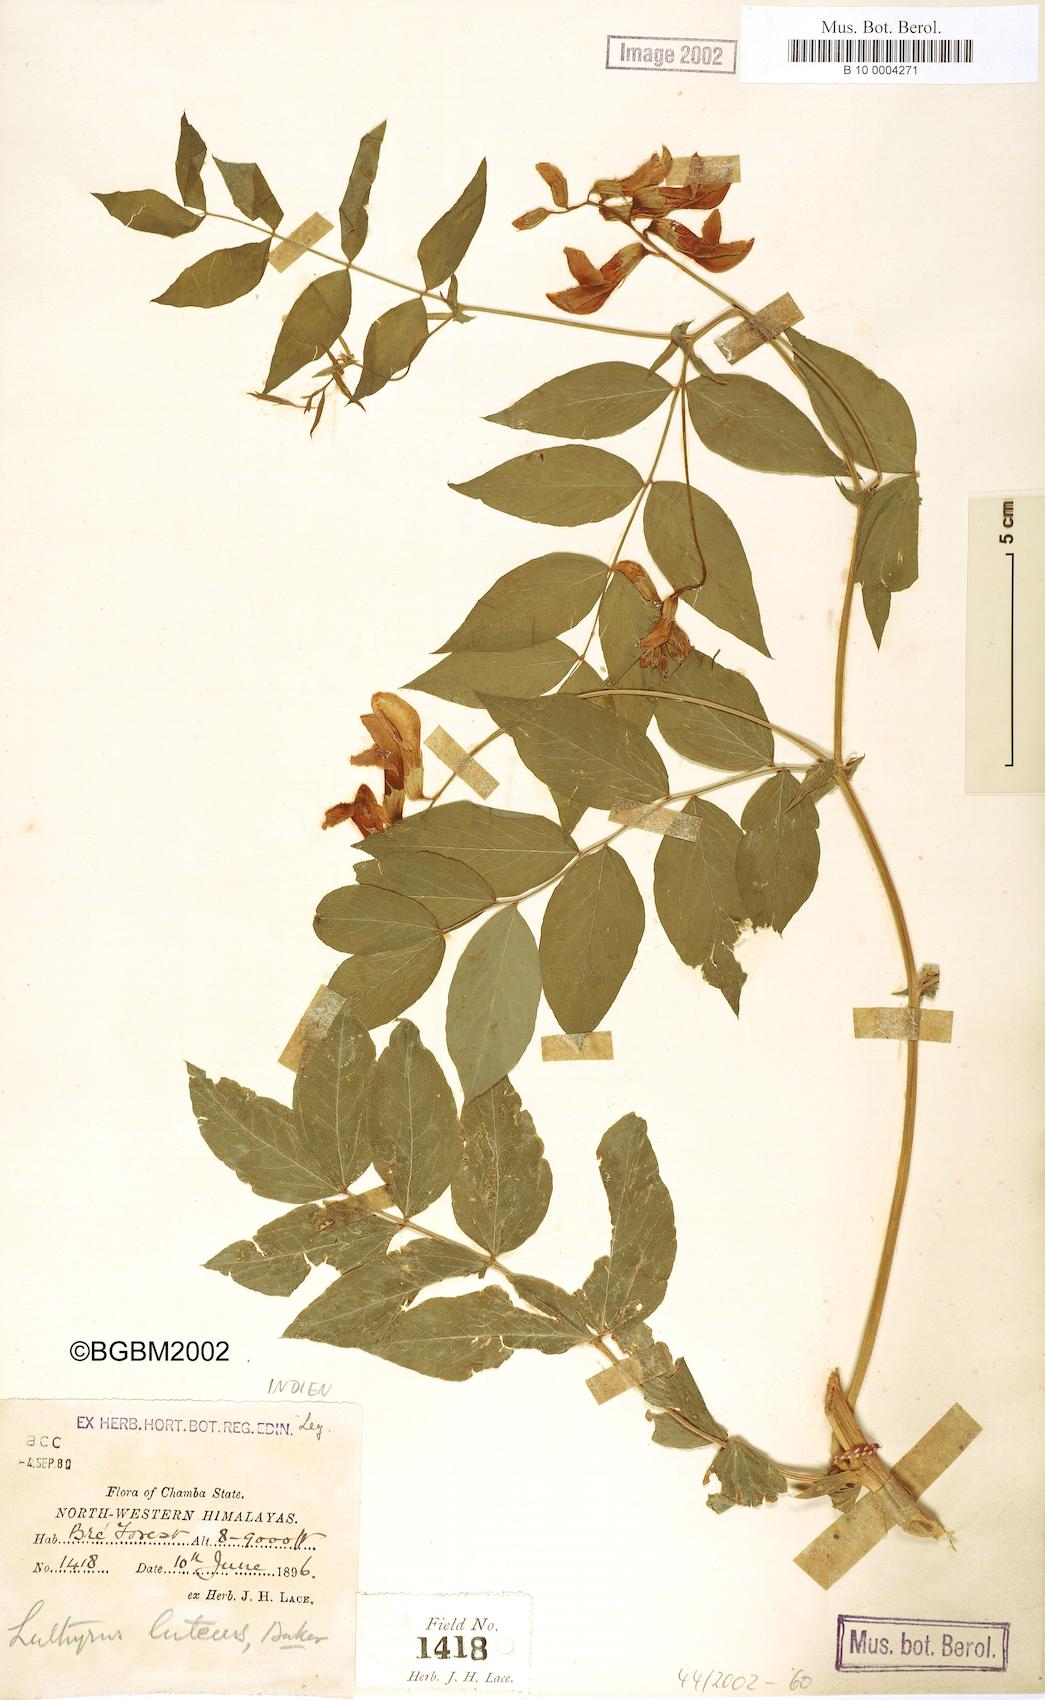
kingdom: Plantae
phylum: Tracheophyta
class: Magnoliopsida
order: Fabales
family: Fabaceae
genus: Lathyrus
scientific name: Lathyrus gmelinii
